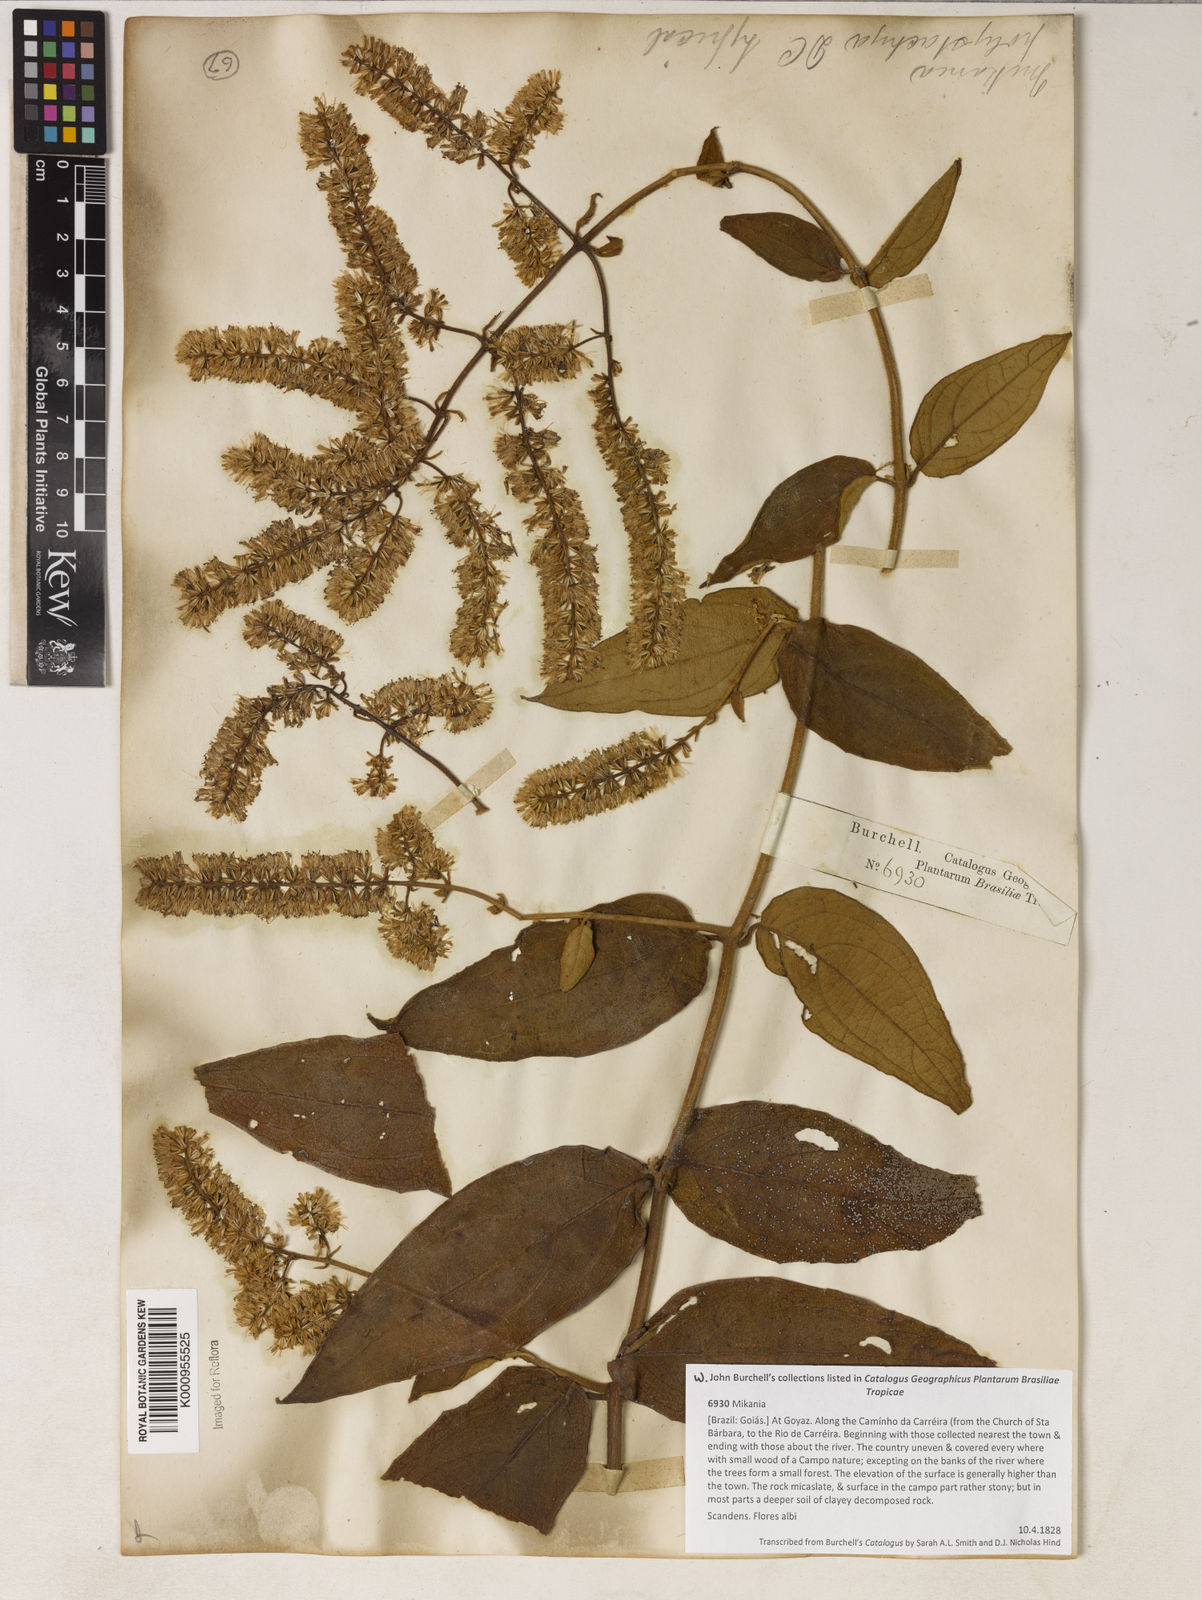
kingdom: Plantae
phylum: Tracheophyta
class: Magnoliopsida
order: Asterales
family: Asteraceae
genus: Mikania
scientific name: Mikania psilostachya
